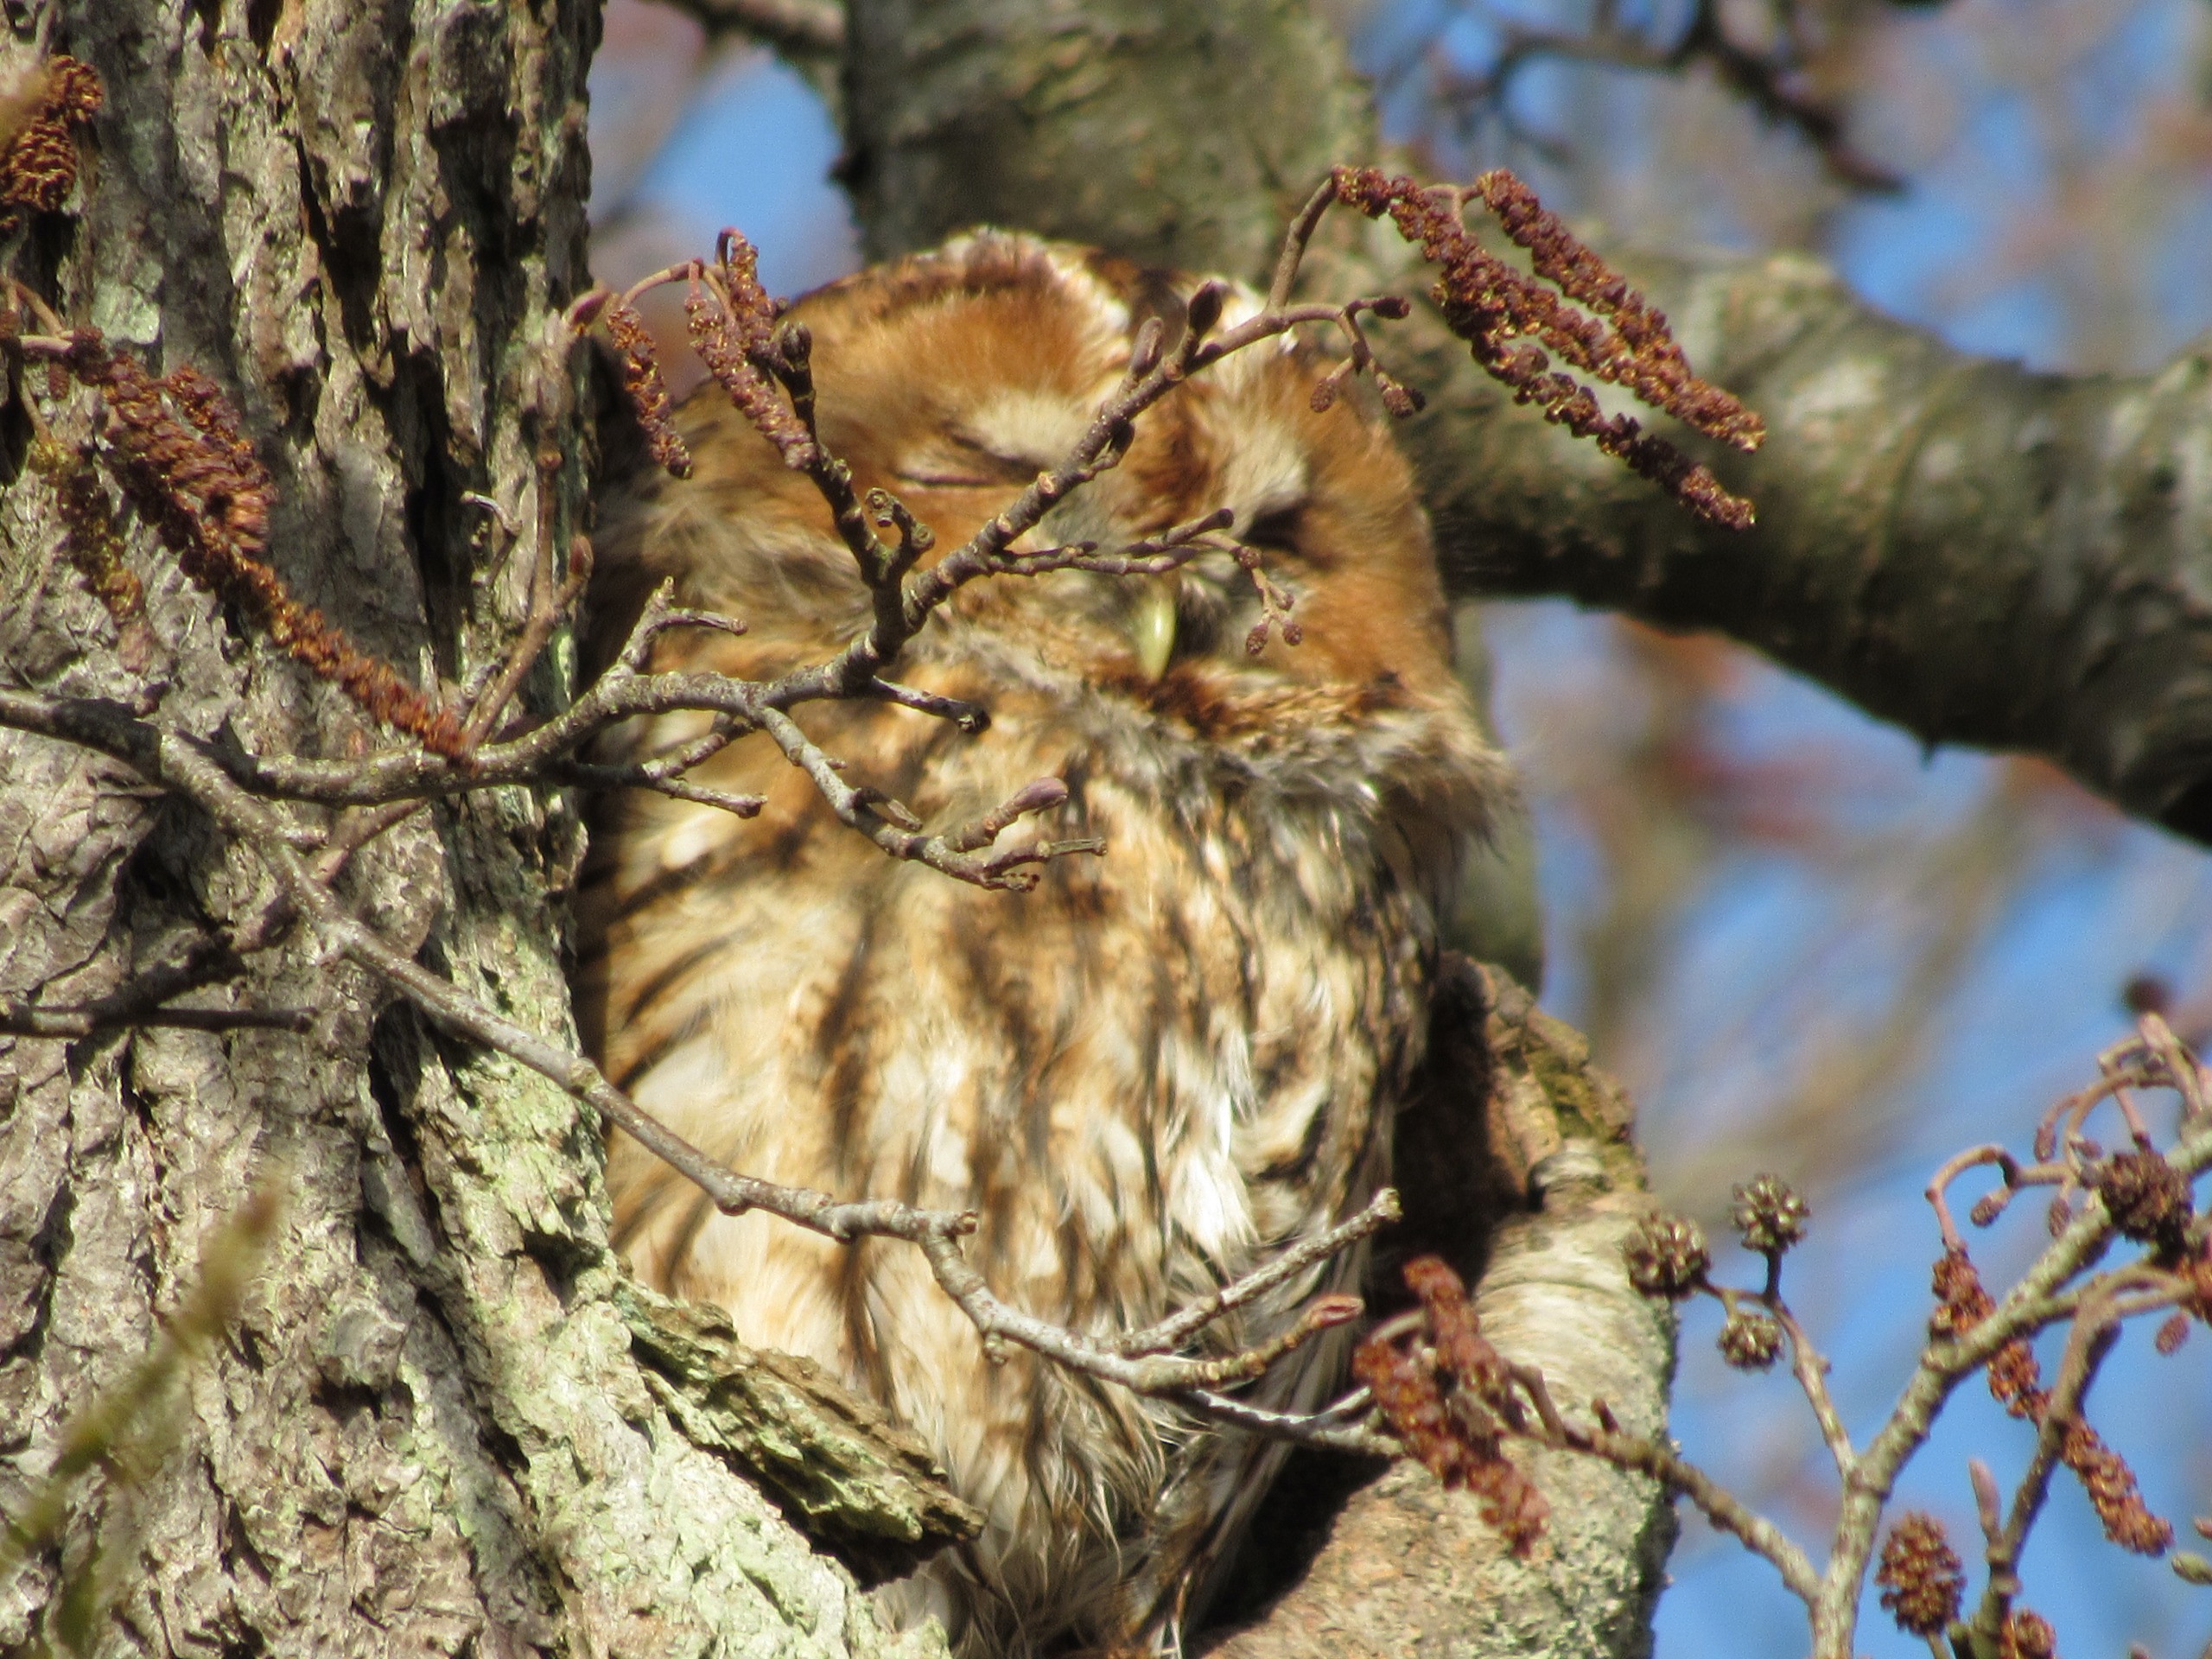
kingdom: Animalia
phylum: Chordata
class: Aves
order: Strigiformes
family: Strigidae
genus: Strix
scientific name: Strix aluco
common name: Natugle
